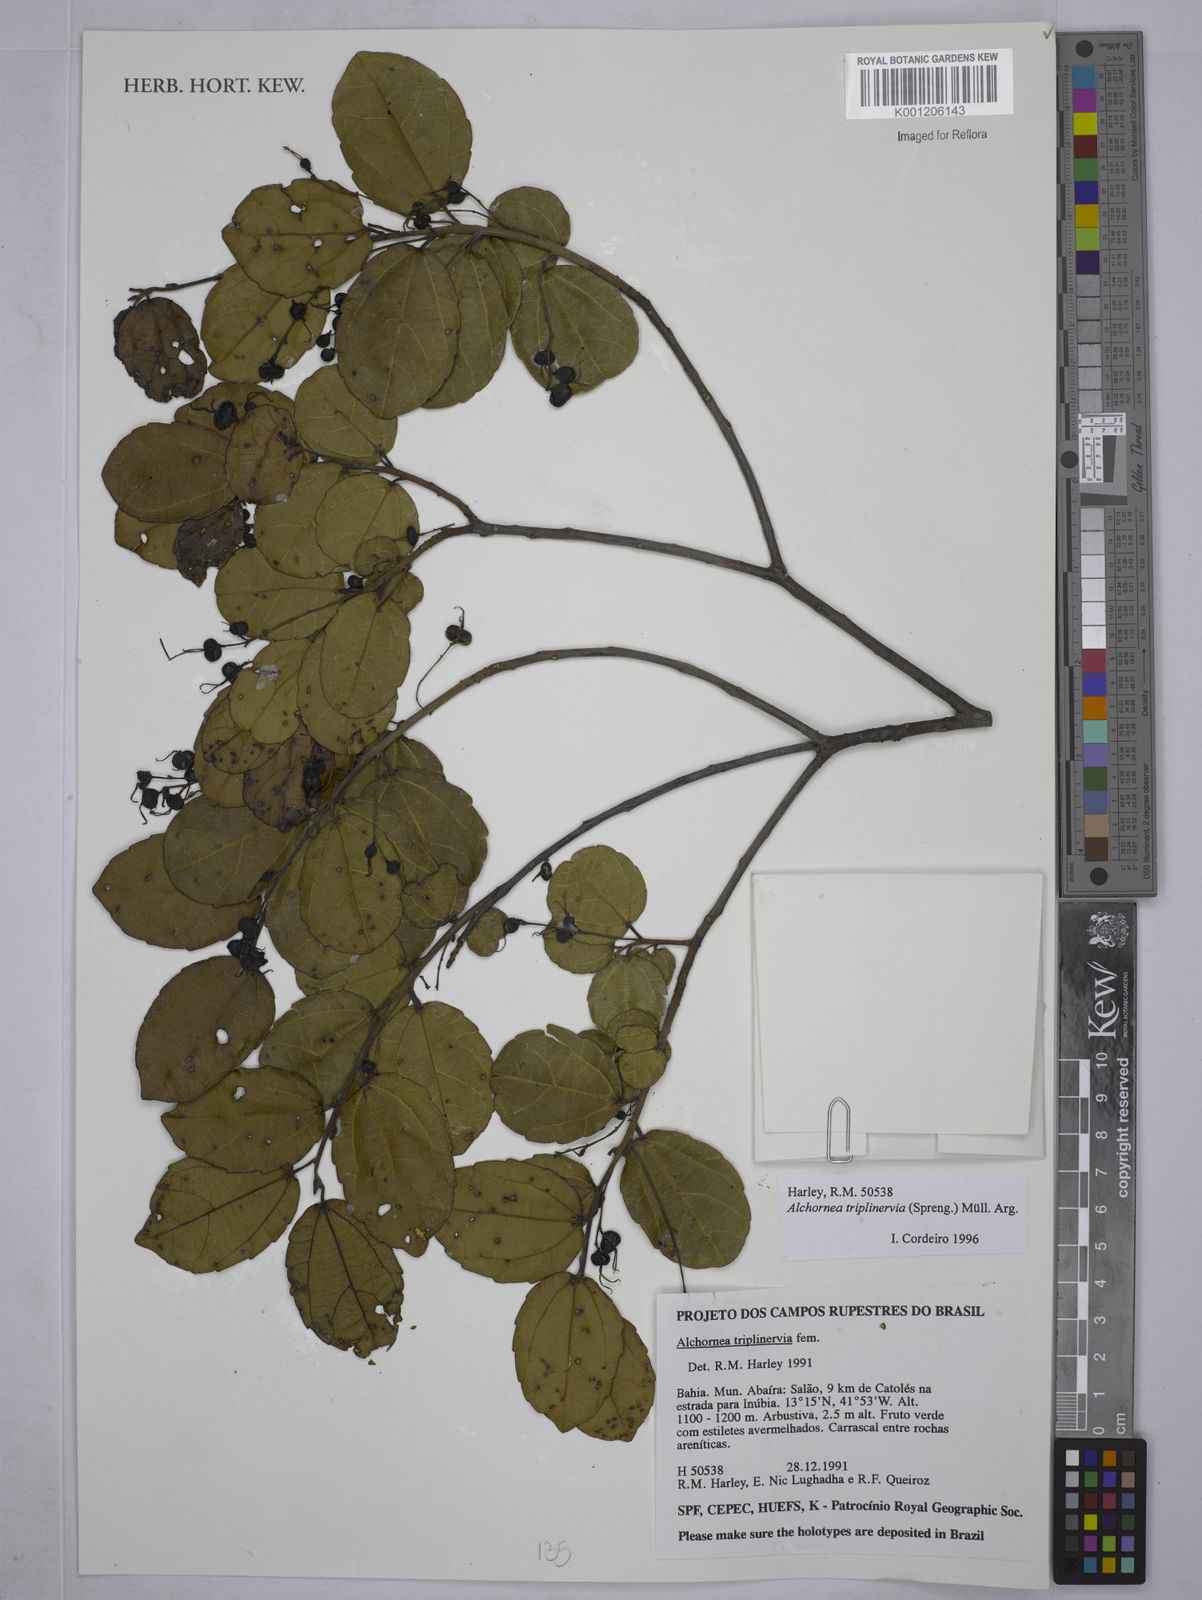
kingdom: Plantae
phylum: Tracheophyta
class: Magnoliopsida
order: Malpighiales
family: Euphorbiaceae
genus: Alchornea
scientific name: Alchornea
